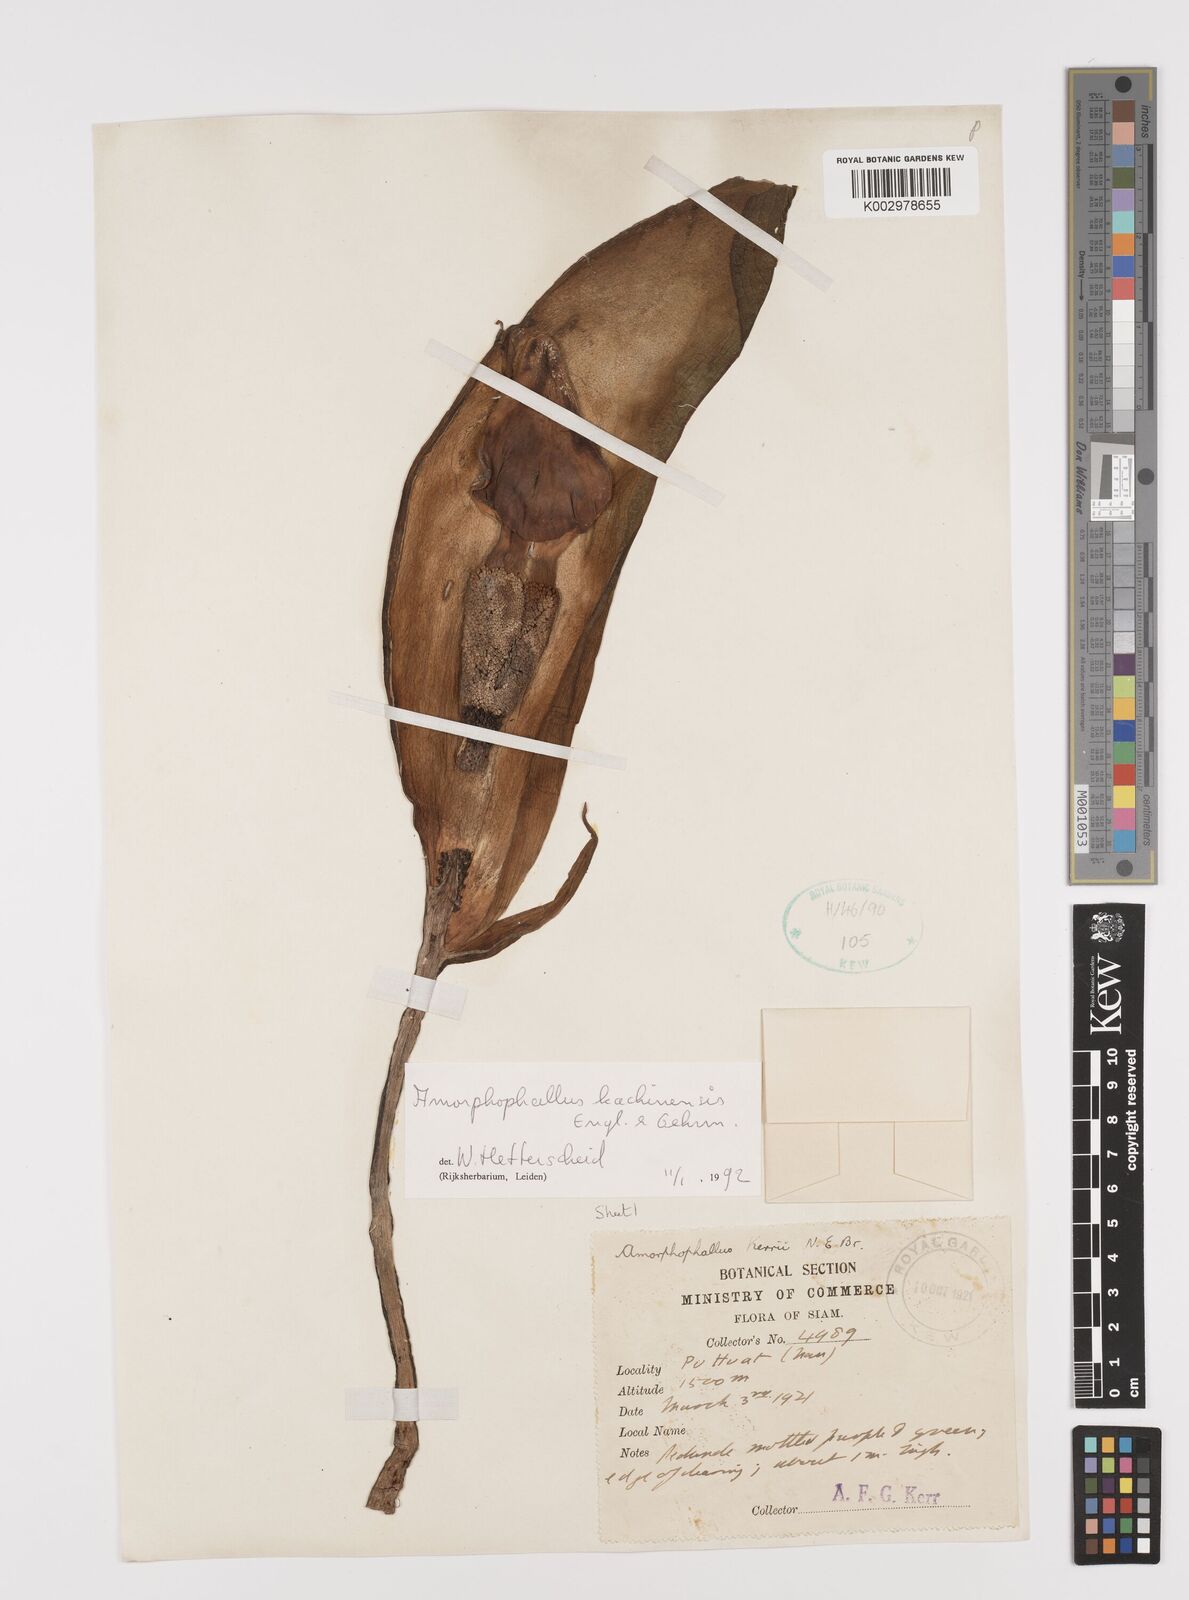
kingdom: Plantae
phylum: Tracheophyta
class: Liliopsida
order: Alismatales
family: Araceae
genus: Amorphophallus
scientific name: Amorphophallus kachinensis
